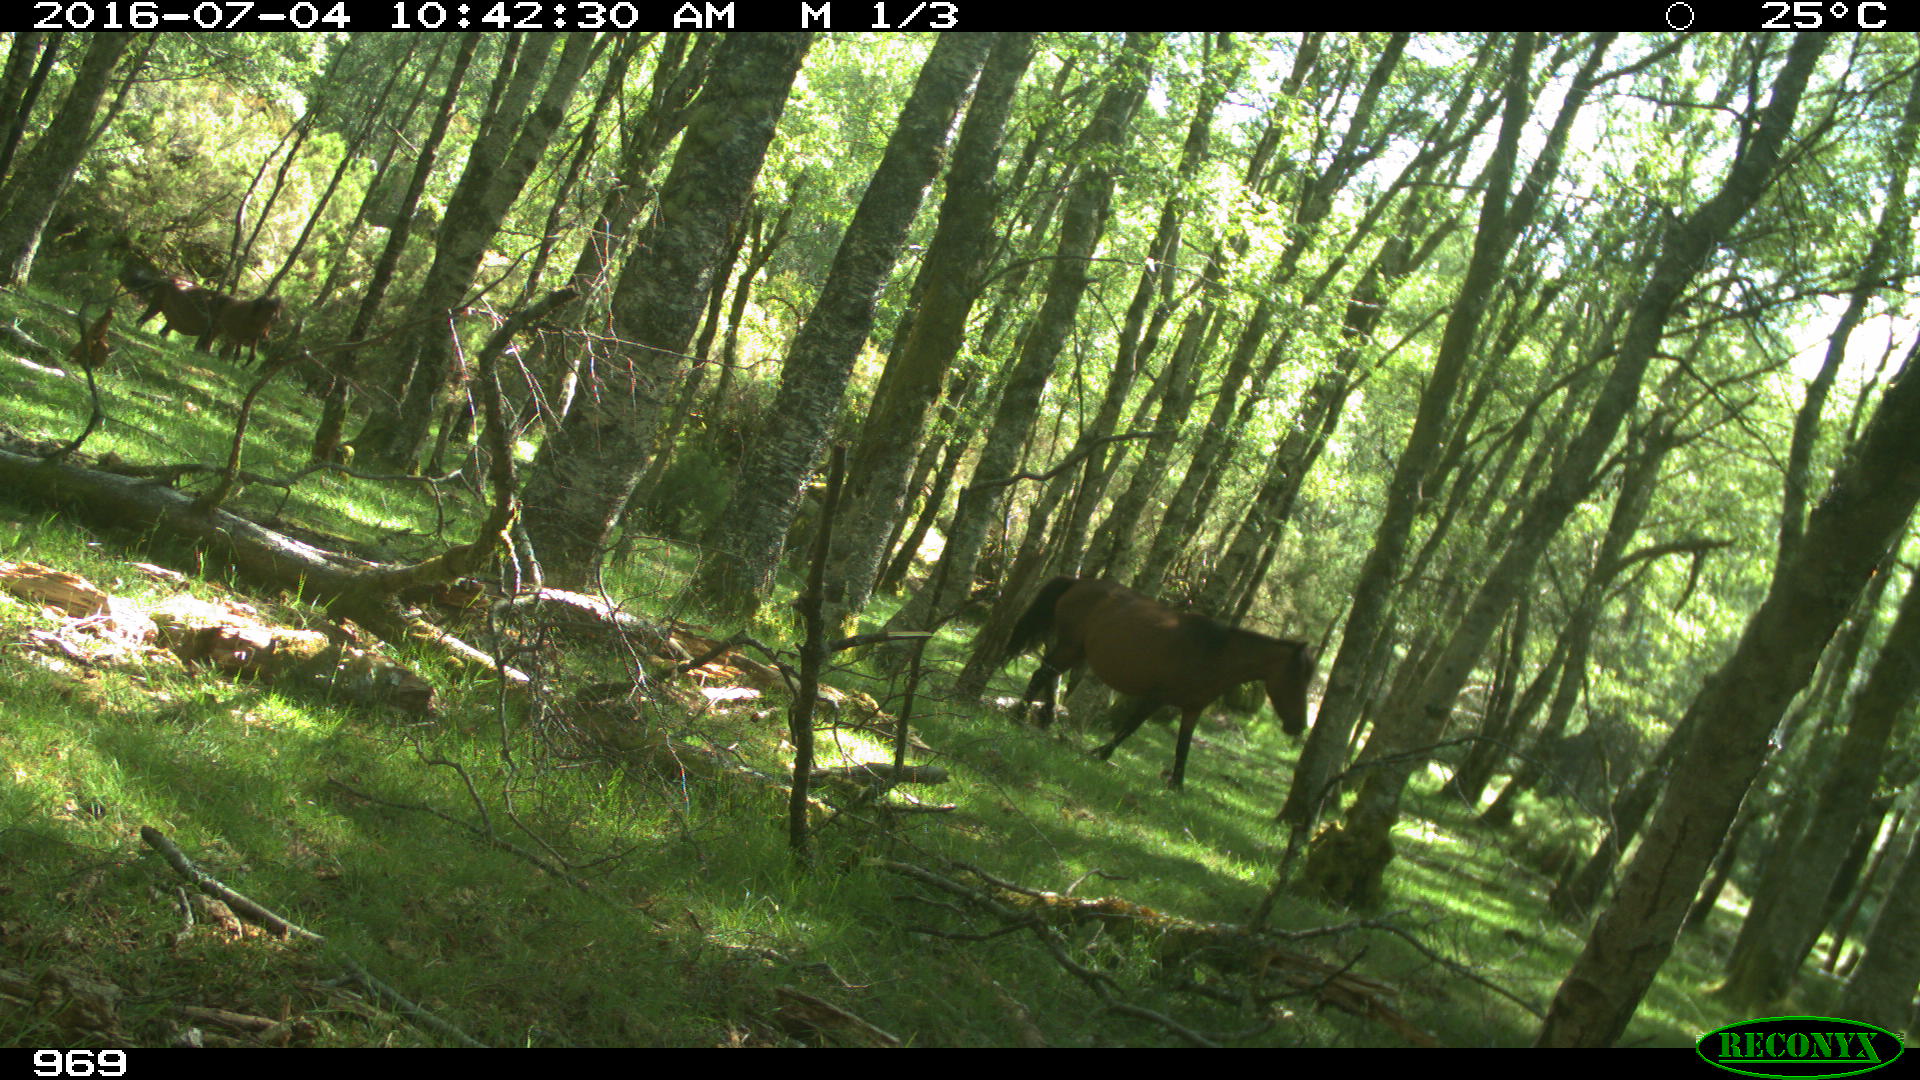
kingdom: Animalia
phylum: Chordata
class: Mammalia
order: Perissodactyla
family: Equidae
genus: Equus
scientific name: Equus caballus
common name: Horse
